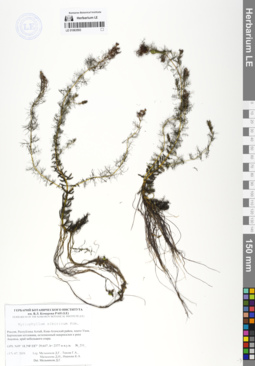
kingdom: Plantae
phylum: Tracheophyta
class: Magnoliopsida
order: Saxifragales
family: Haloragaceae
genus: Myriophyllum
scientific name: Myriophyllum sibiricum
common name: Siberian water-milfoil
